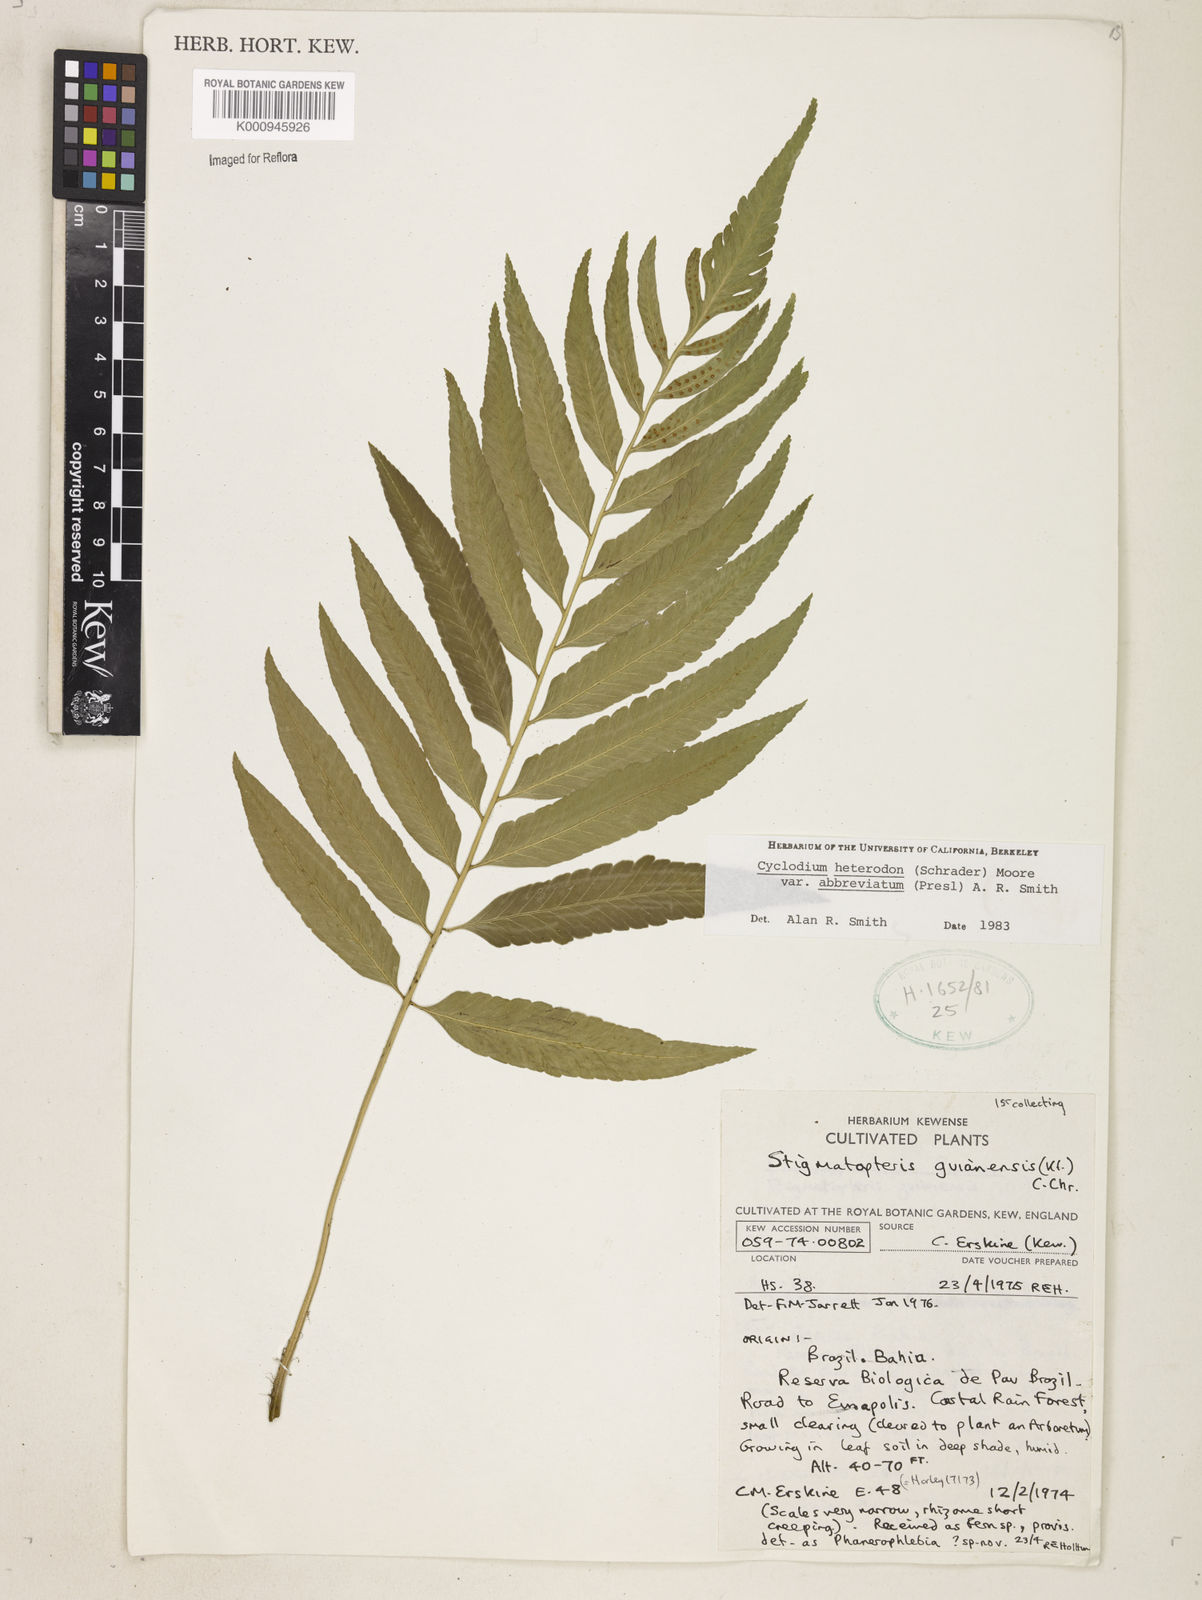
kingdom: Plantae
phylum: Tracheophyta
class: Polypodiopsida
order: Polypodiales
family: Dryopteridaceae
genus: Cyclodium
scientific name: Cyclodium heterodon
